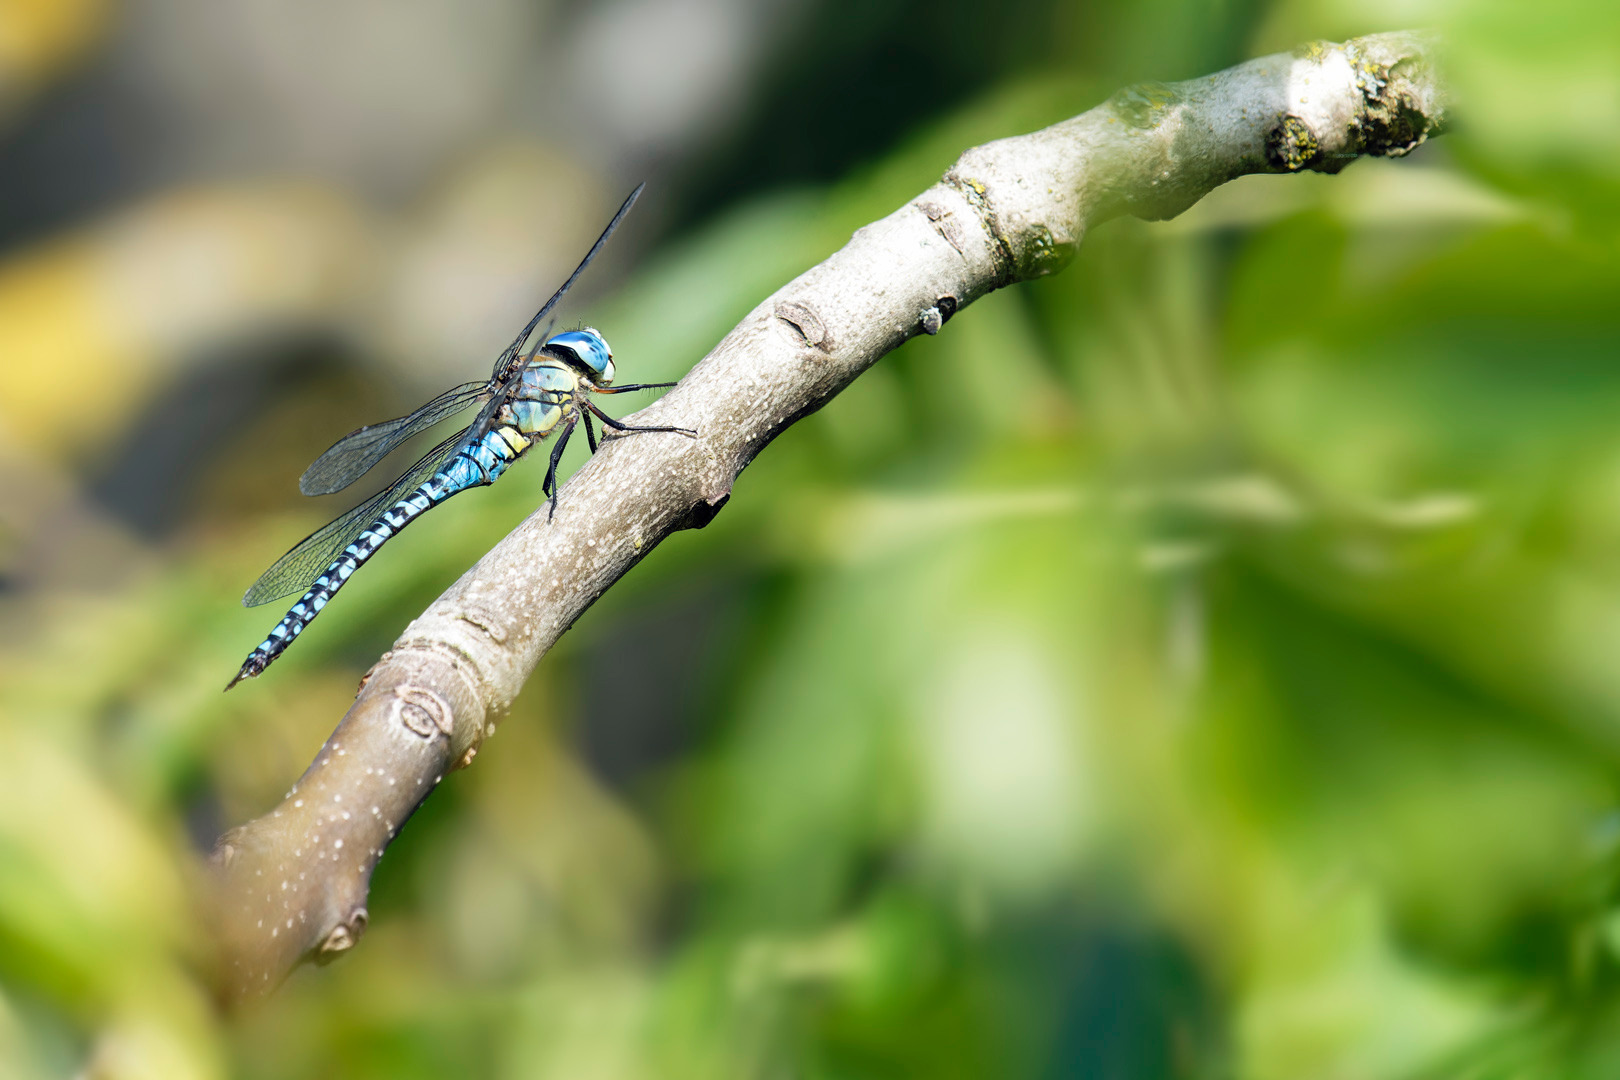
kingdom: Animalia
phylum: Arthropoda
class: Insecta
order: Odonata
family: Aeshnidae
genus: Aeshna
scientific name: Aeshna affinis
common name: Sydlig mosaikguldsmed
